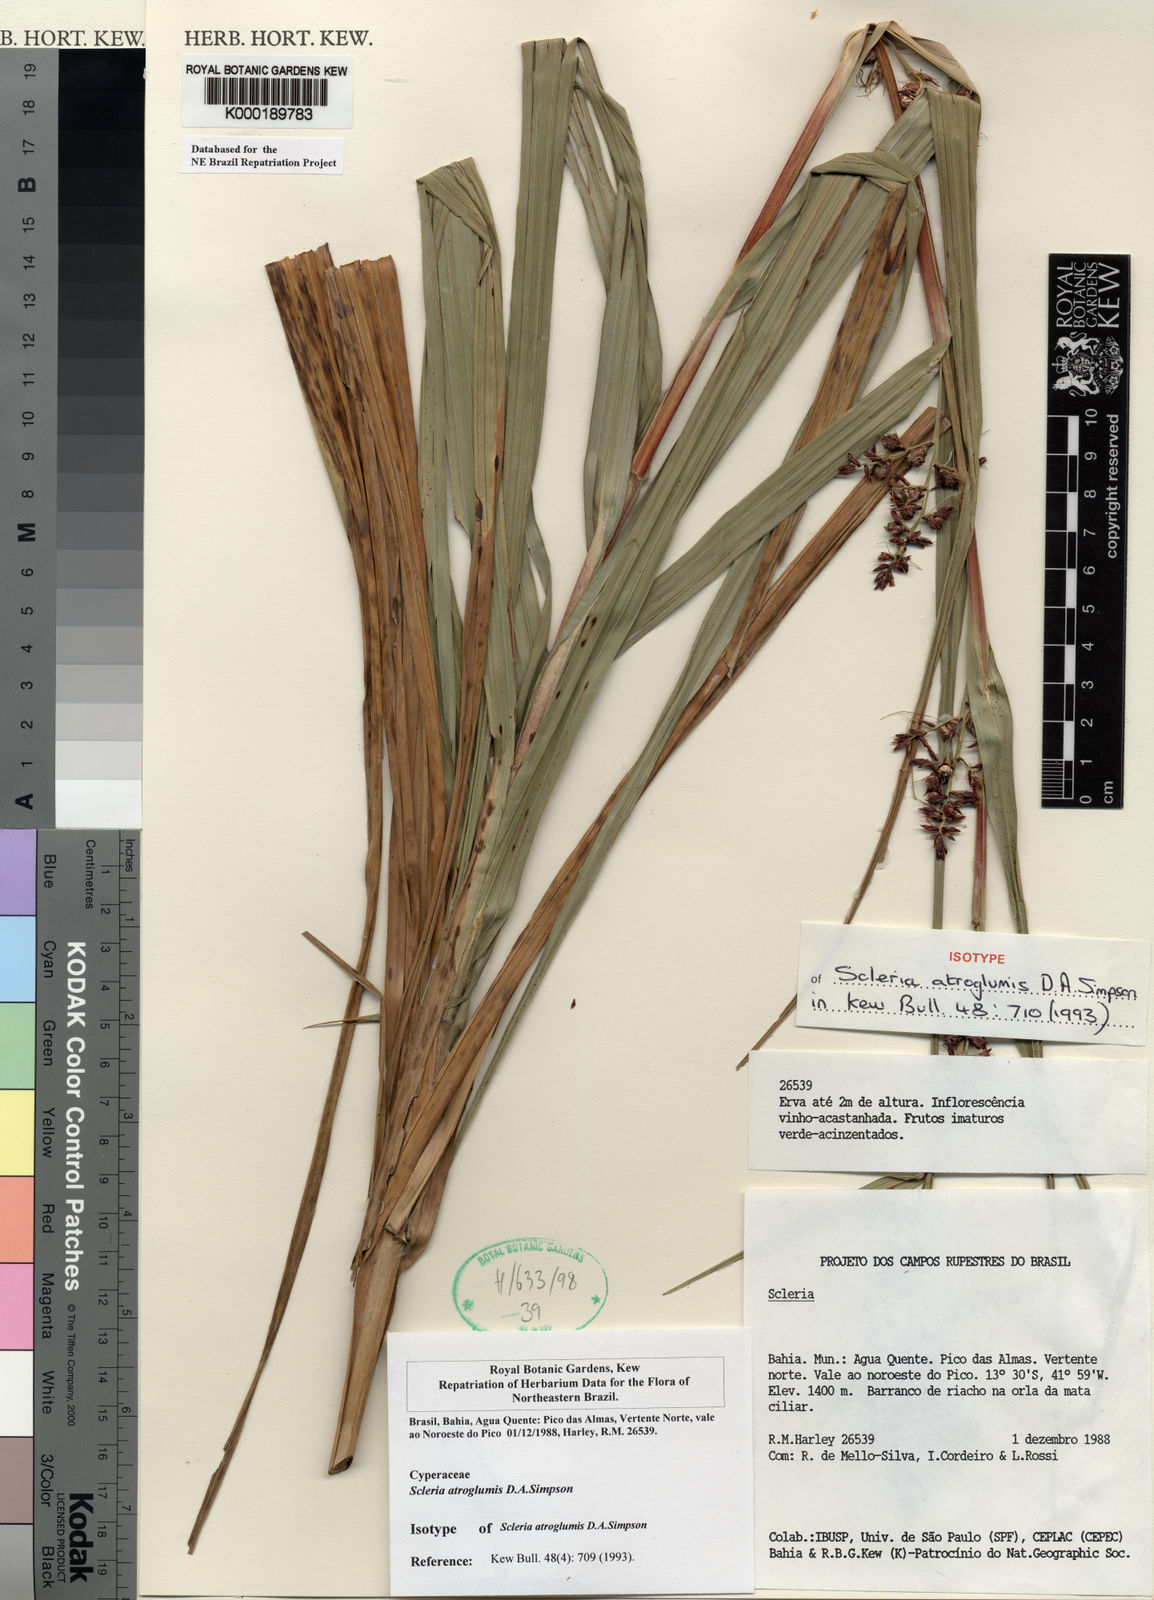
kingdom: Plantae
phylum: Tracheophyta
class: Liliopsida
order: Poales
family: Cyperaceae
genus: Scleria
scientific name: Scleria atroglumis
